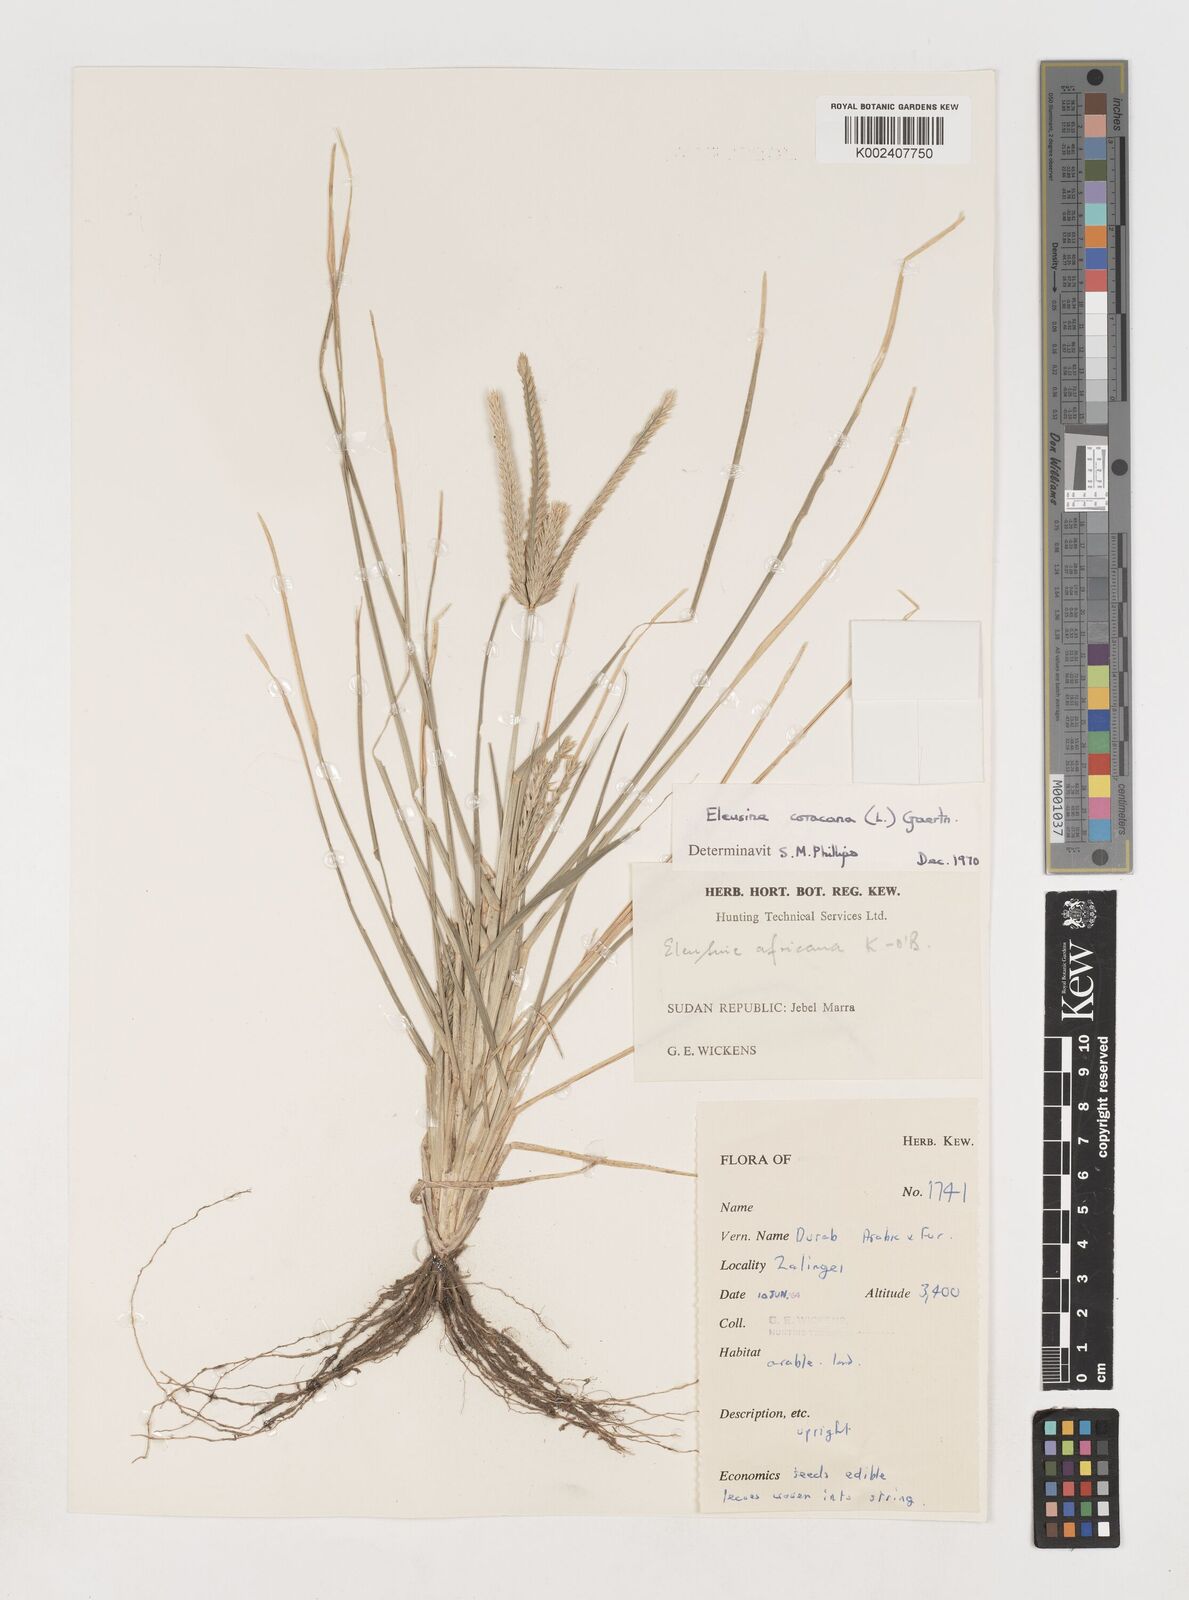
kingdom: Plantae
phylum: Tracheophyta
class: Liliopsida
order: Poales
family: Poaceae
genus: Eleusine
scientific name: Eleusine coracana
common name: Finger millet
